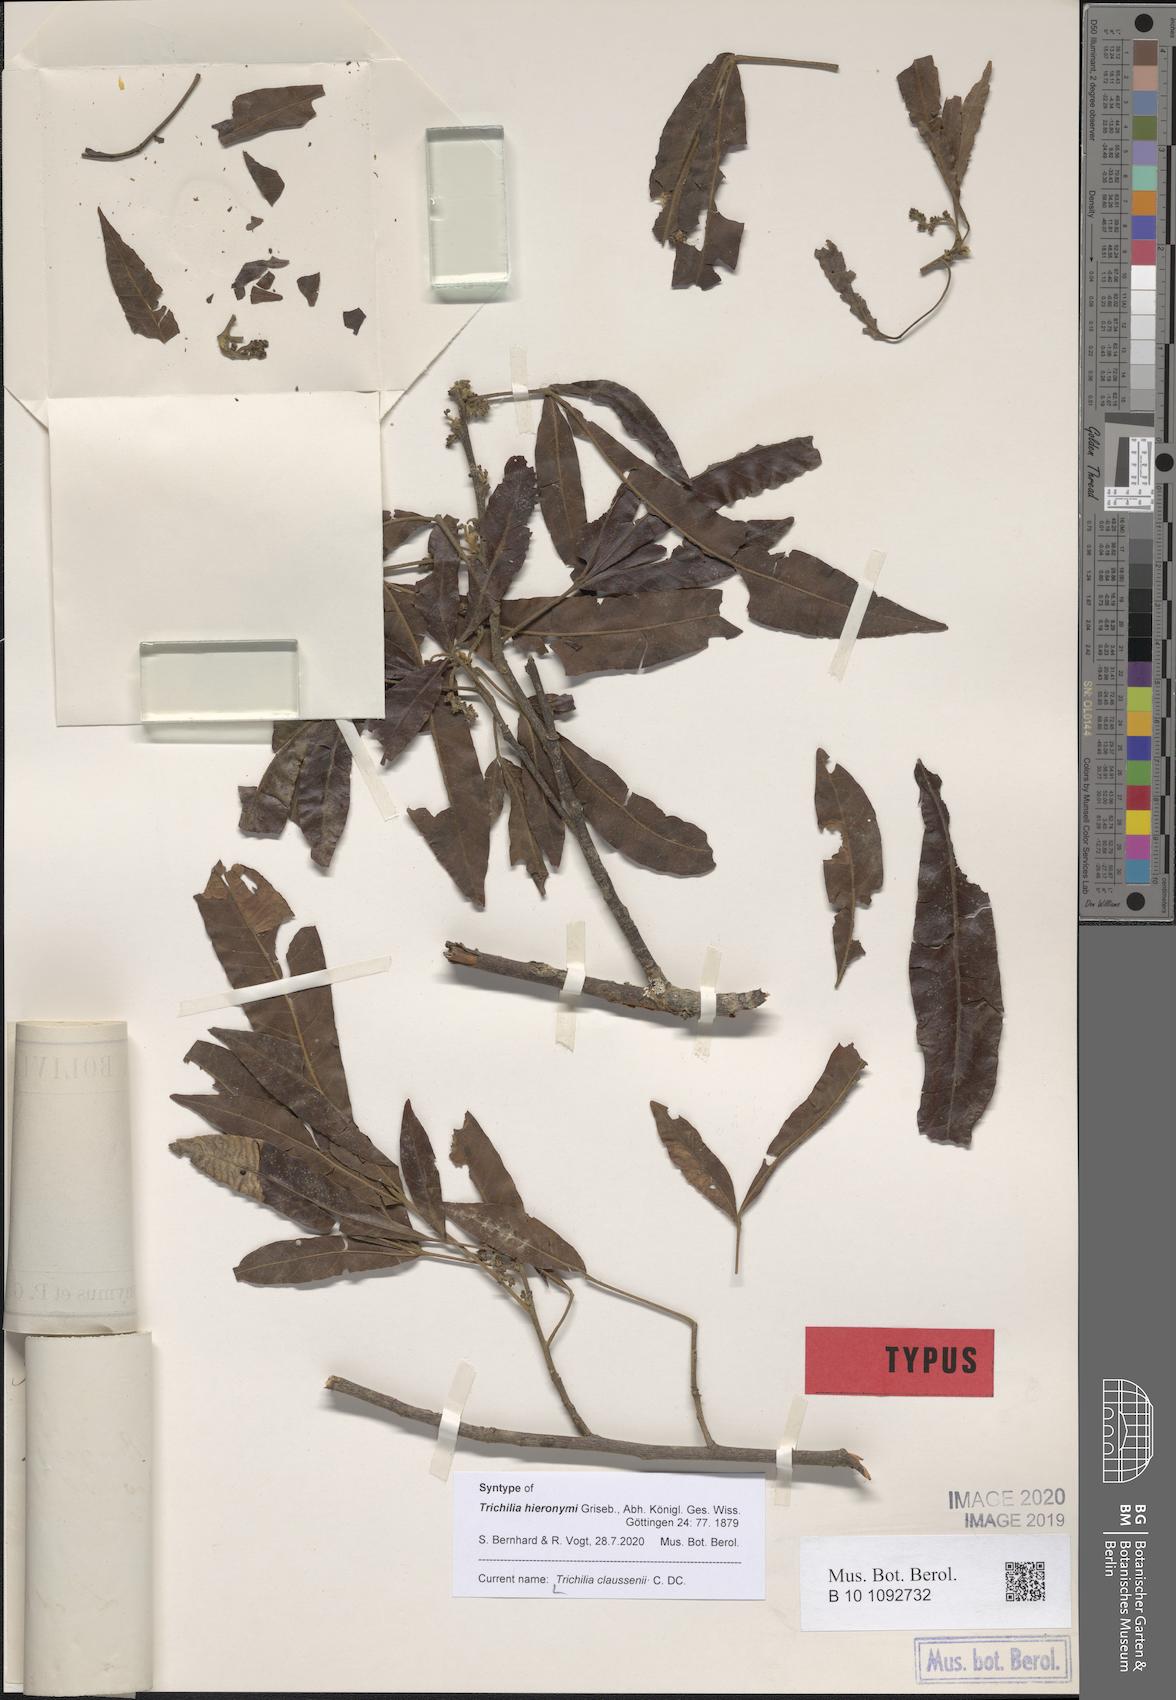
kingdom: Plantae
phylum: Tracheophyta
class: Magnoliopsida
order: Sapindales
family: Meliaceae
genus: Trichilia
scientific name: Trichilia claussenii
